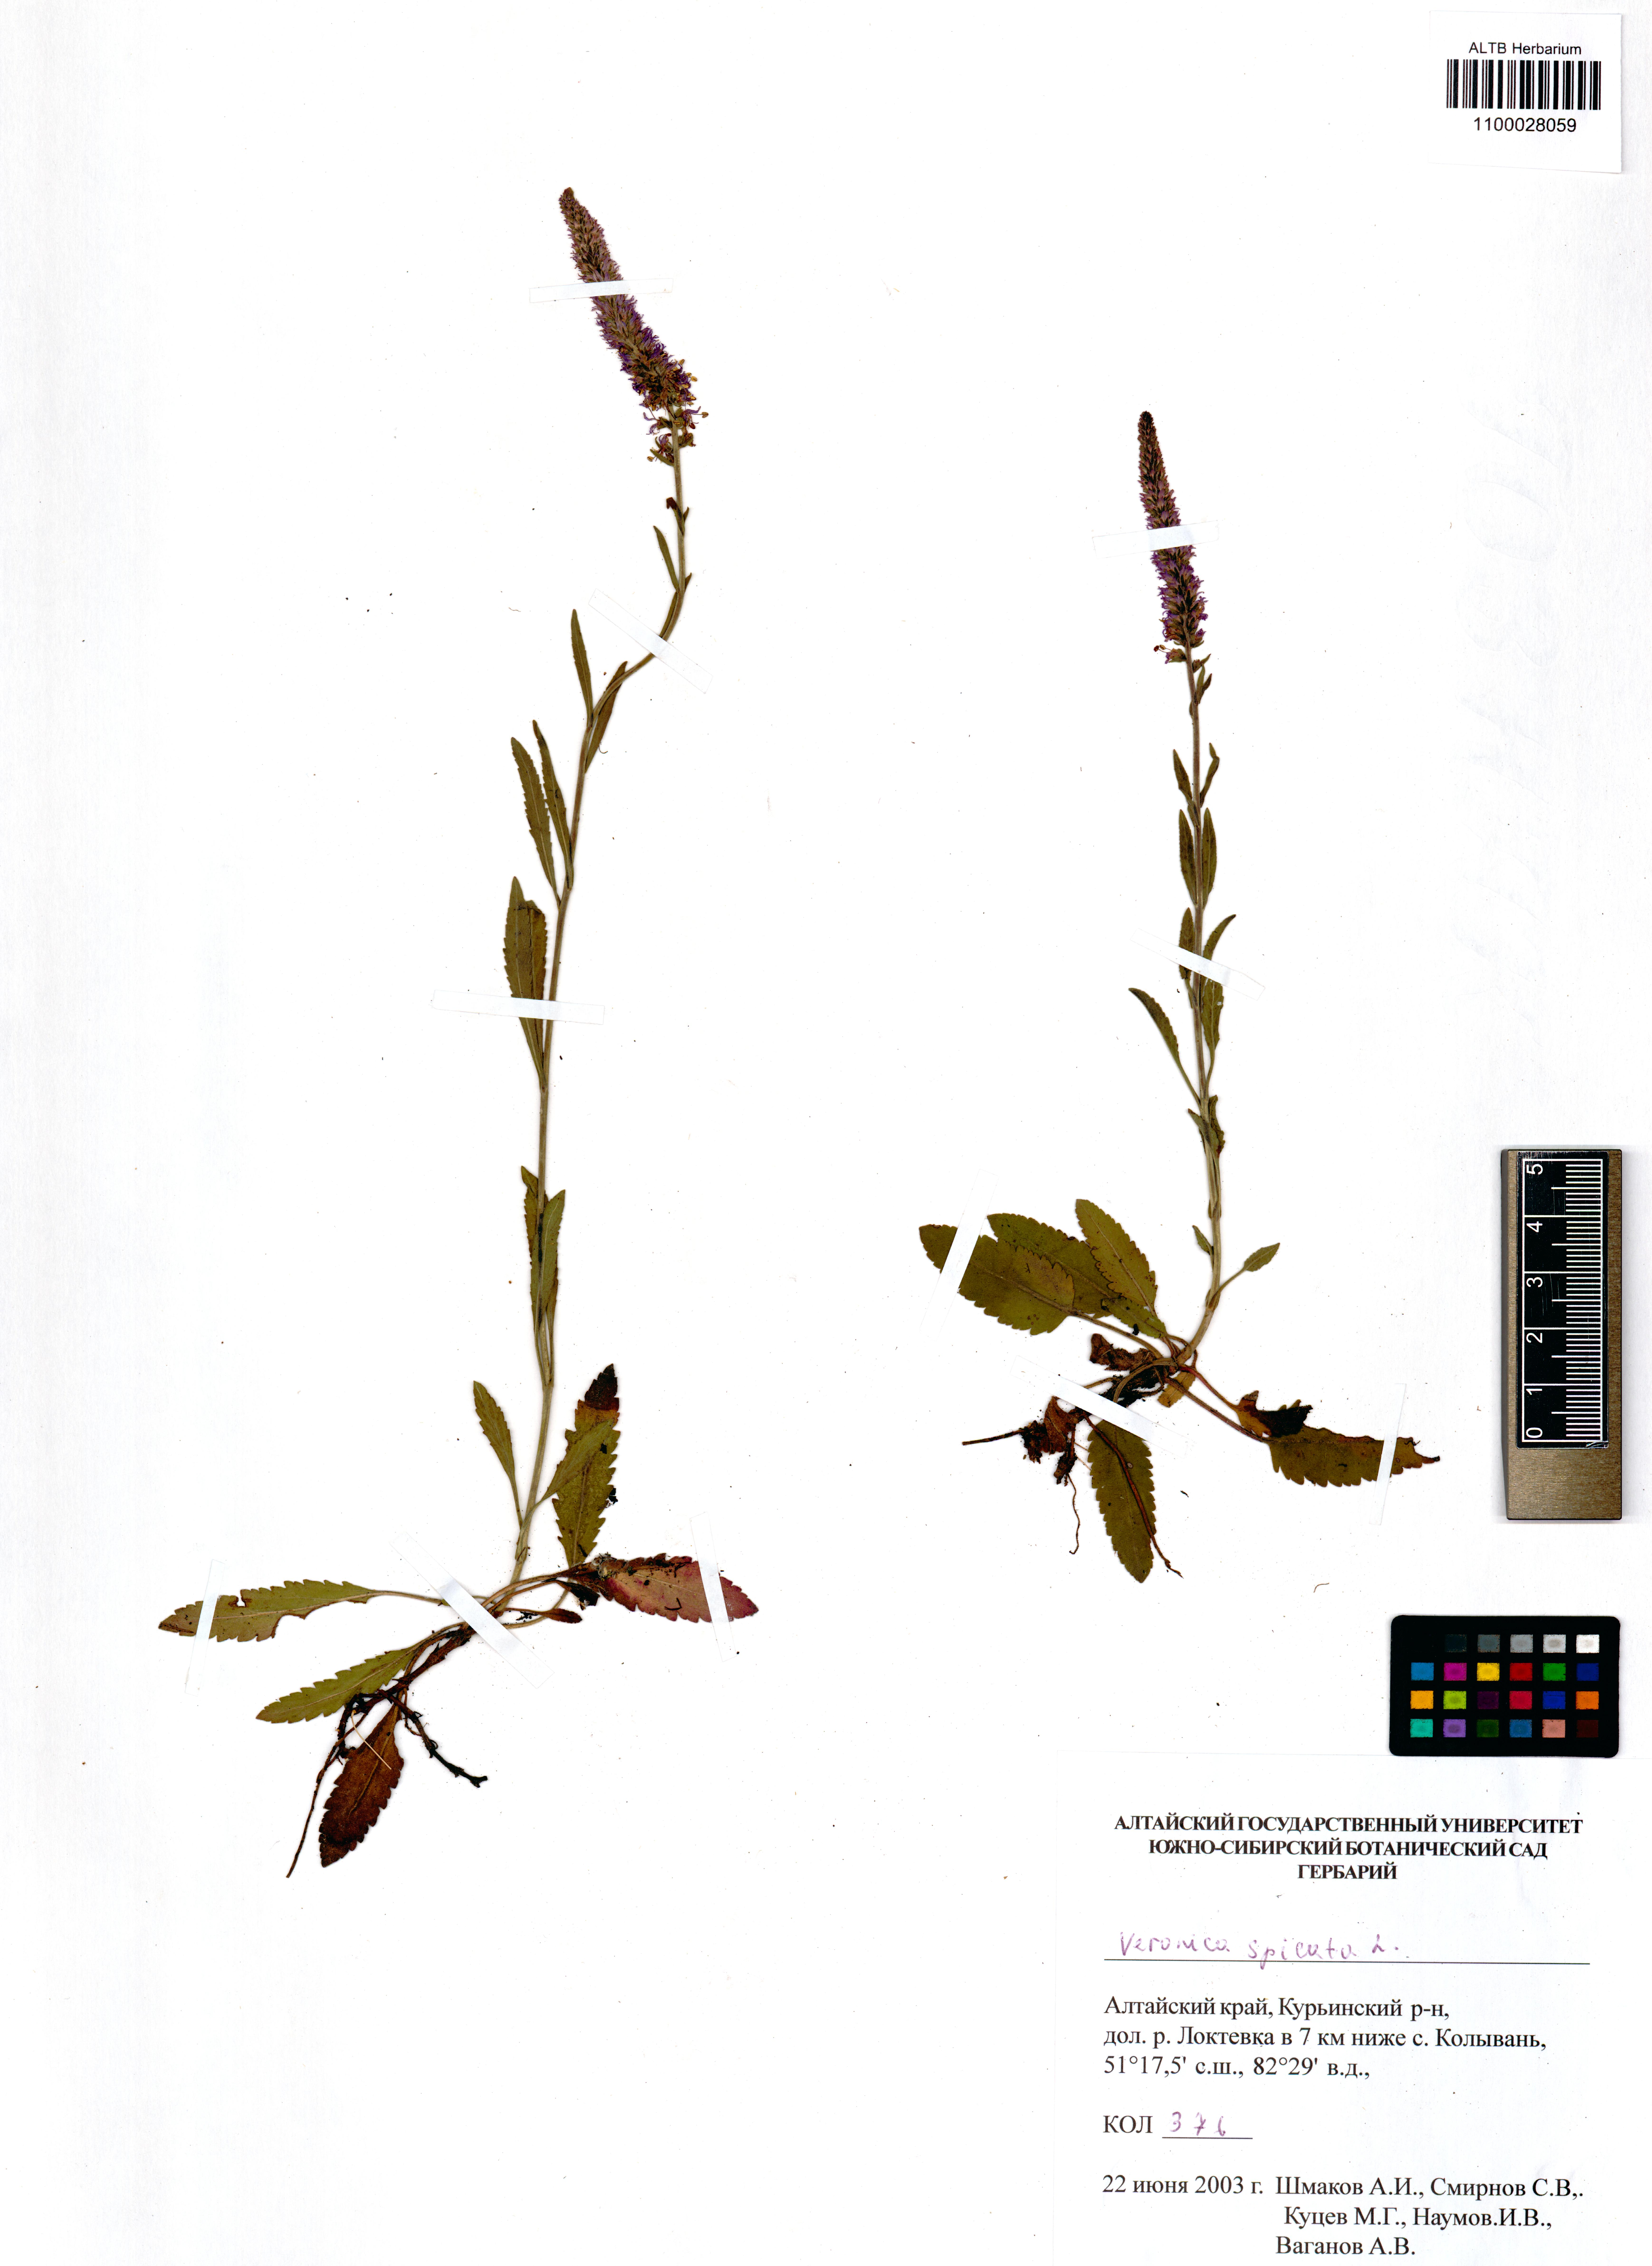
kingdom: Plantae
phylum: Tracheophyta
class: Magnoliopsida
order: Lamiales
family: Plantaginaceae
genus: Veronica
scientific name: Veronica spicata
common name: Spiked speedwell
